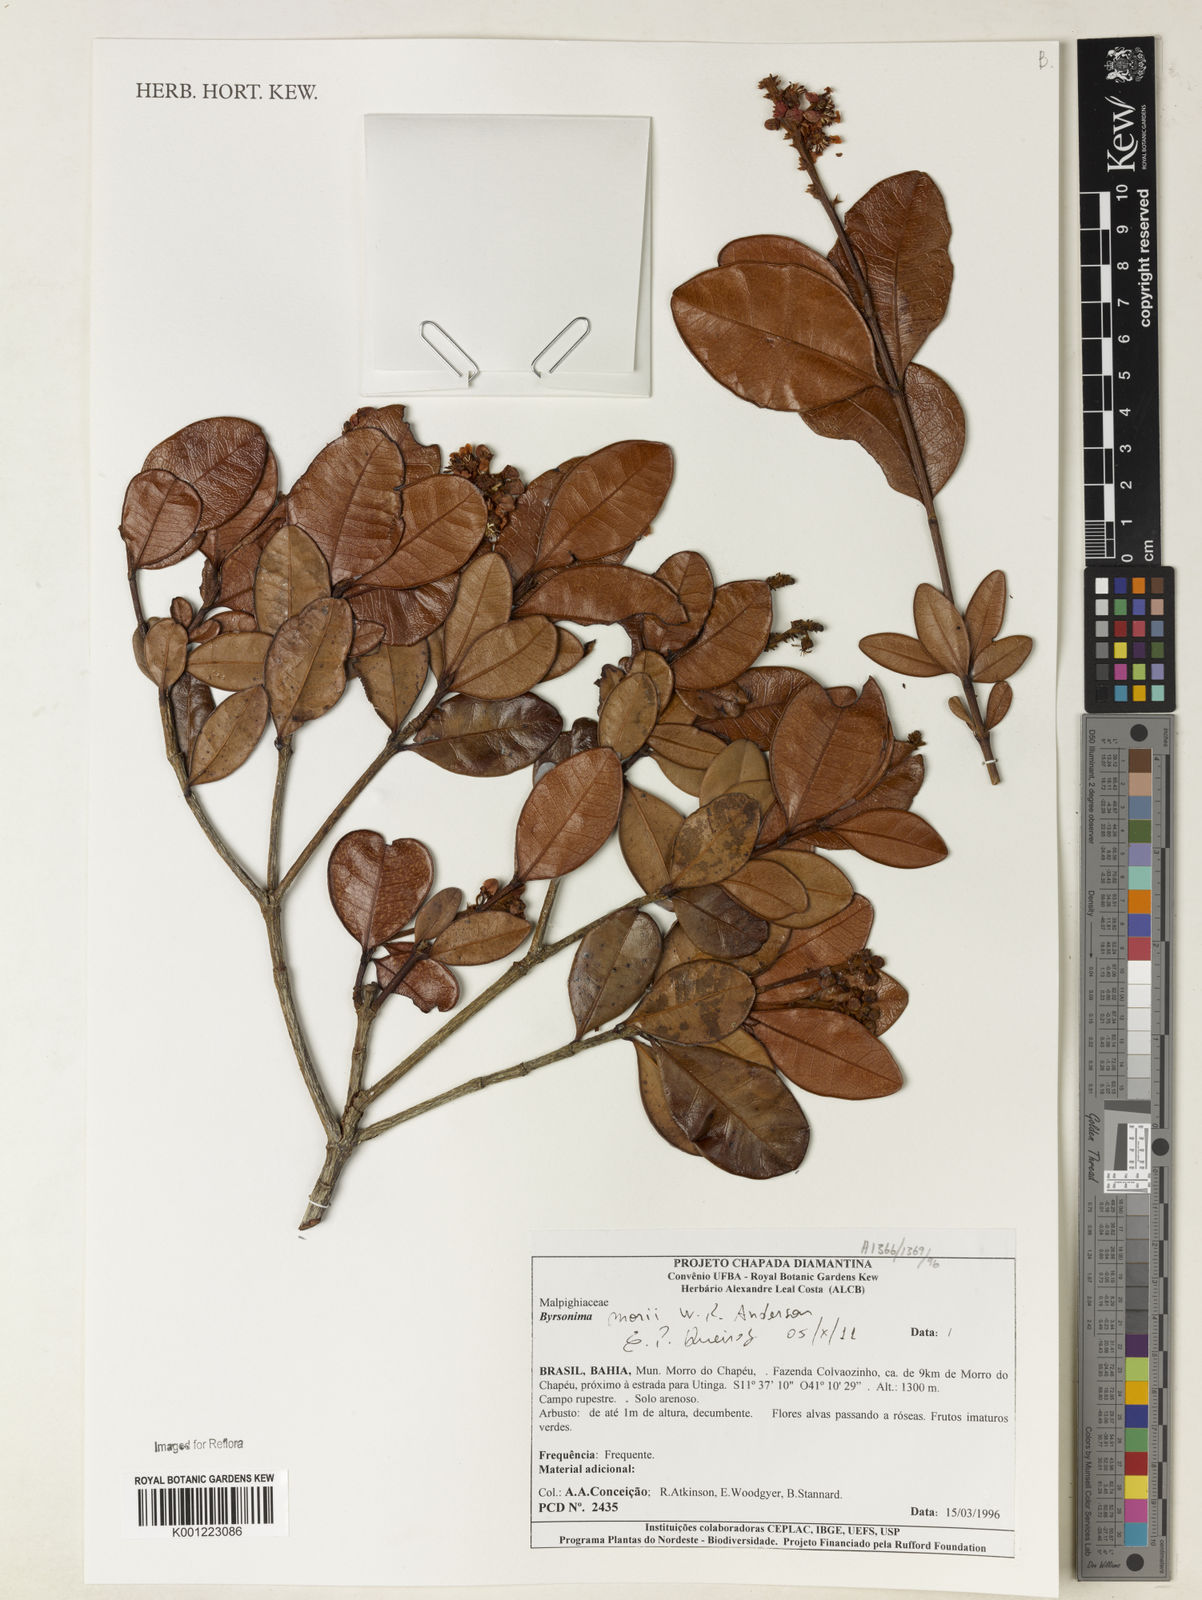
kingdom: Plantae
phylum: Tracheophyta
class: Magnoliopsida
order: Malpighiales
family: Malpighiaceae
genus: Byrsonima
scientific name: Byrsonima morii
